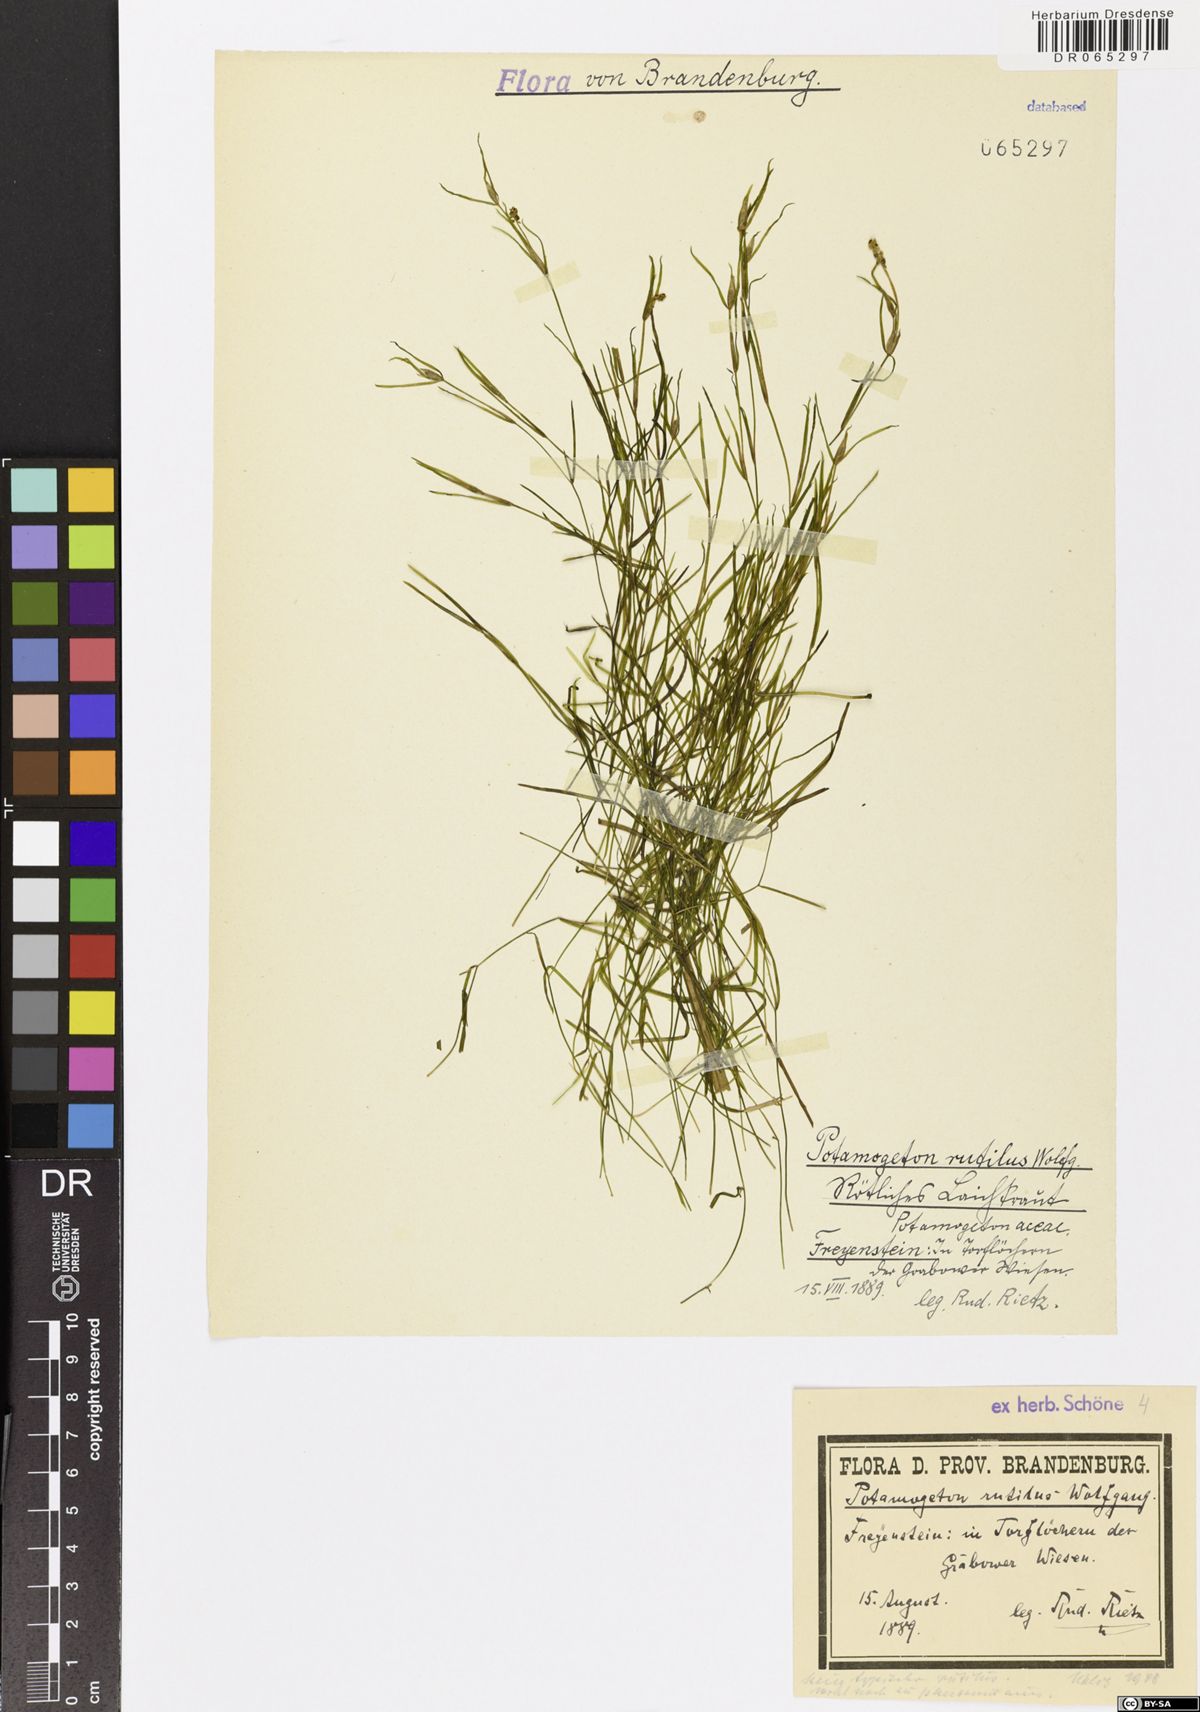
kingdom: Plantae
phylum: Tracheophyta
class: Liliopsida
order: Alismatales
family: Potamogetonaceae
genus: Potamogeton
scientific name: Potamogeton rutilus
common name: Shetland pondweed
